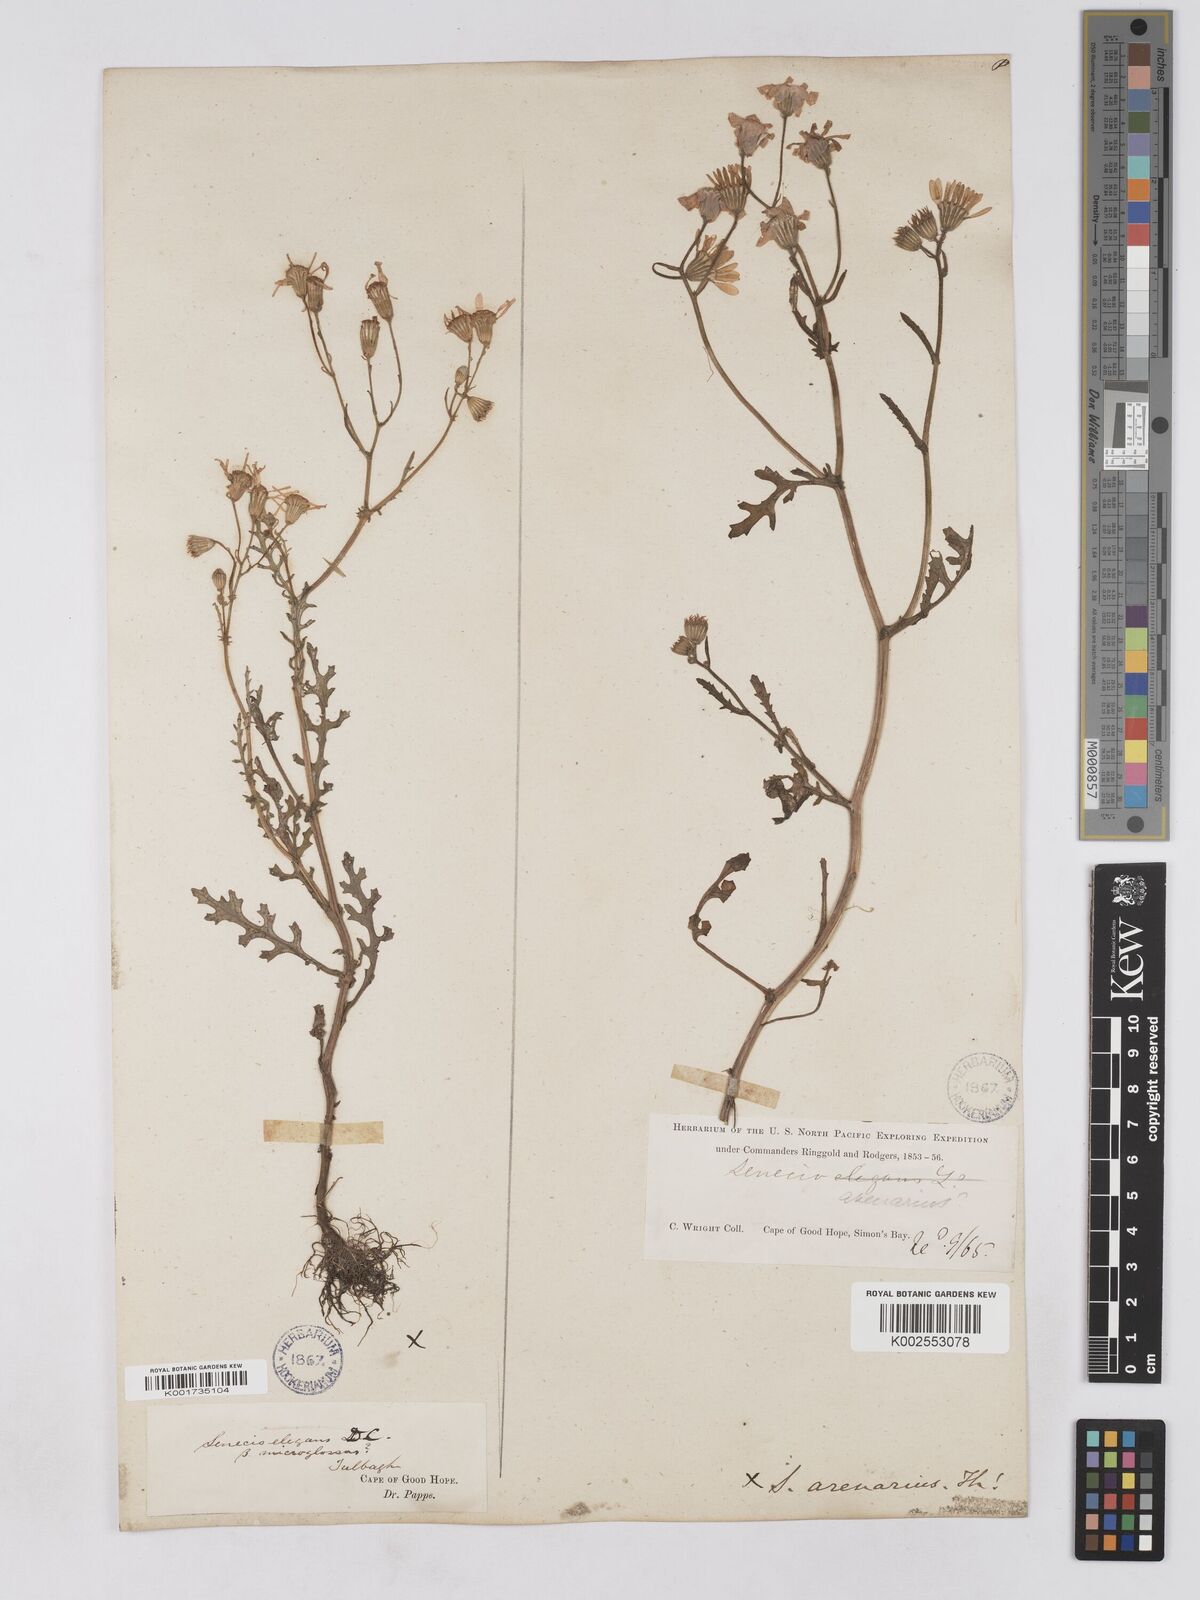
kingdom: Plantae
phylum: Tracheophyta
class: Magnoliopsida
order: Asterales
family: Asteraceae
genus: Senecio
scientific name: Senecio arenarius
